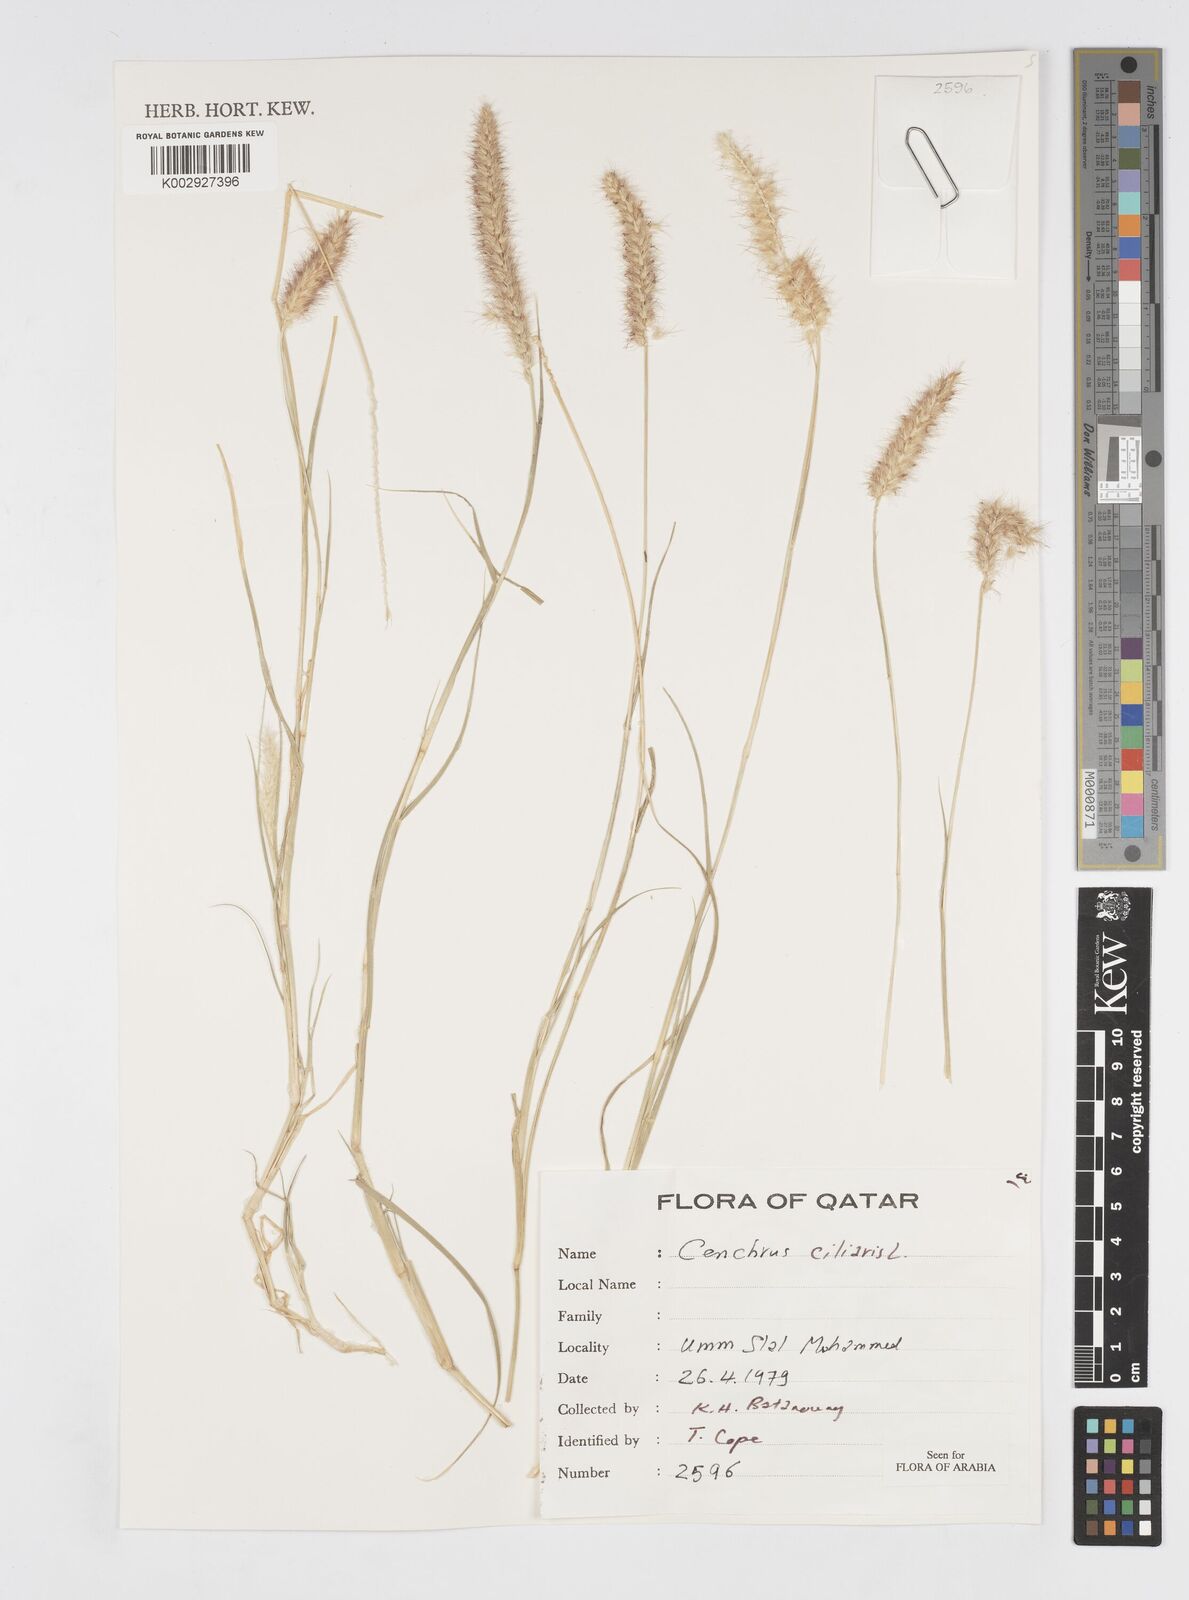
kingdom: Plantae
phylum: Tracheophyta
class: Liliopsida
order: Poales
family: Poaceae
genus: Cenchrus
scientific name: Cenchrus ciliaris
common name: Buffelgrass
